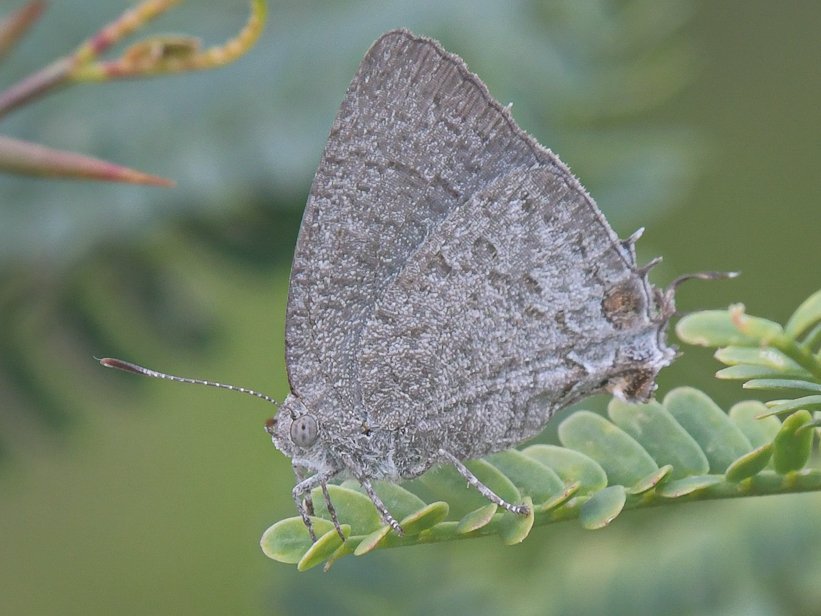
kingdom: Animalia
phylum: Arthropoda
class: Insecta
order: Lepidoptera
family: Lycaenidae
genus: Hypostrymon
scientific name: Hypostrymon critola
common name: Sonoran Hairstreak
